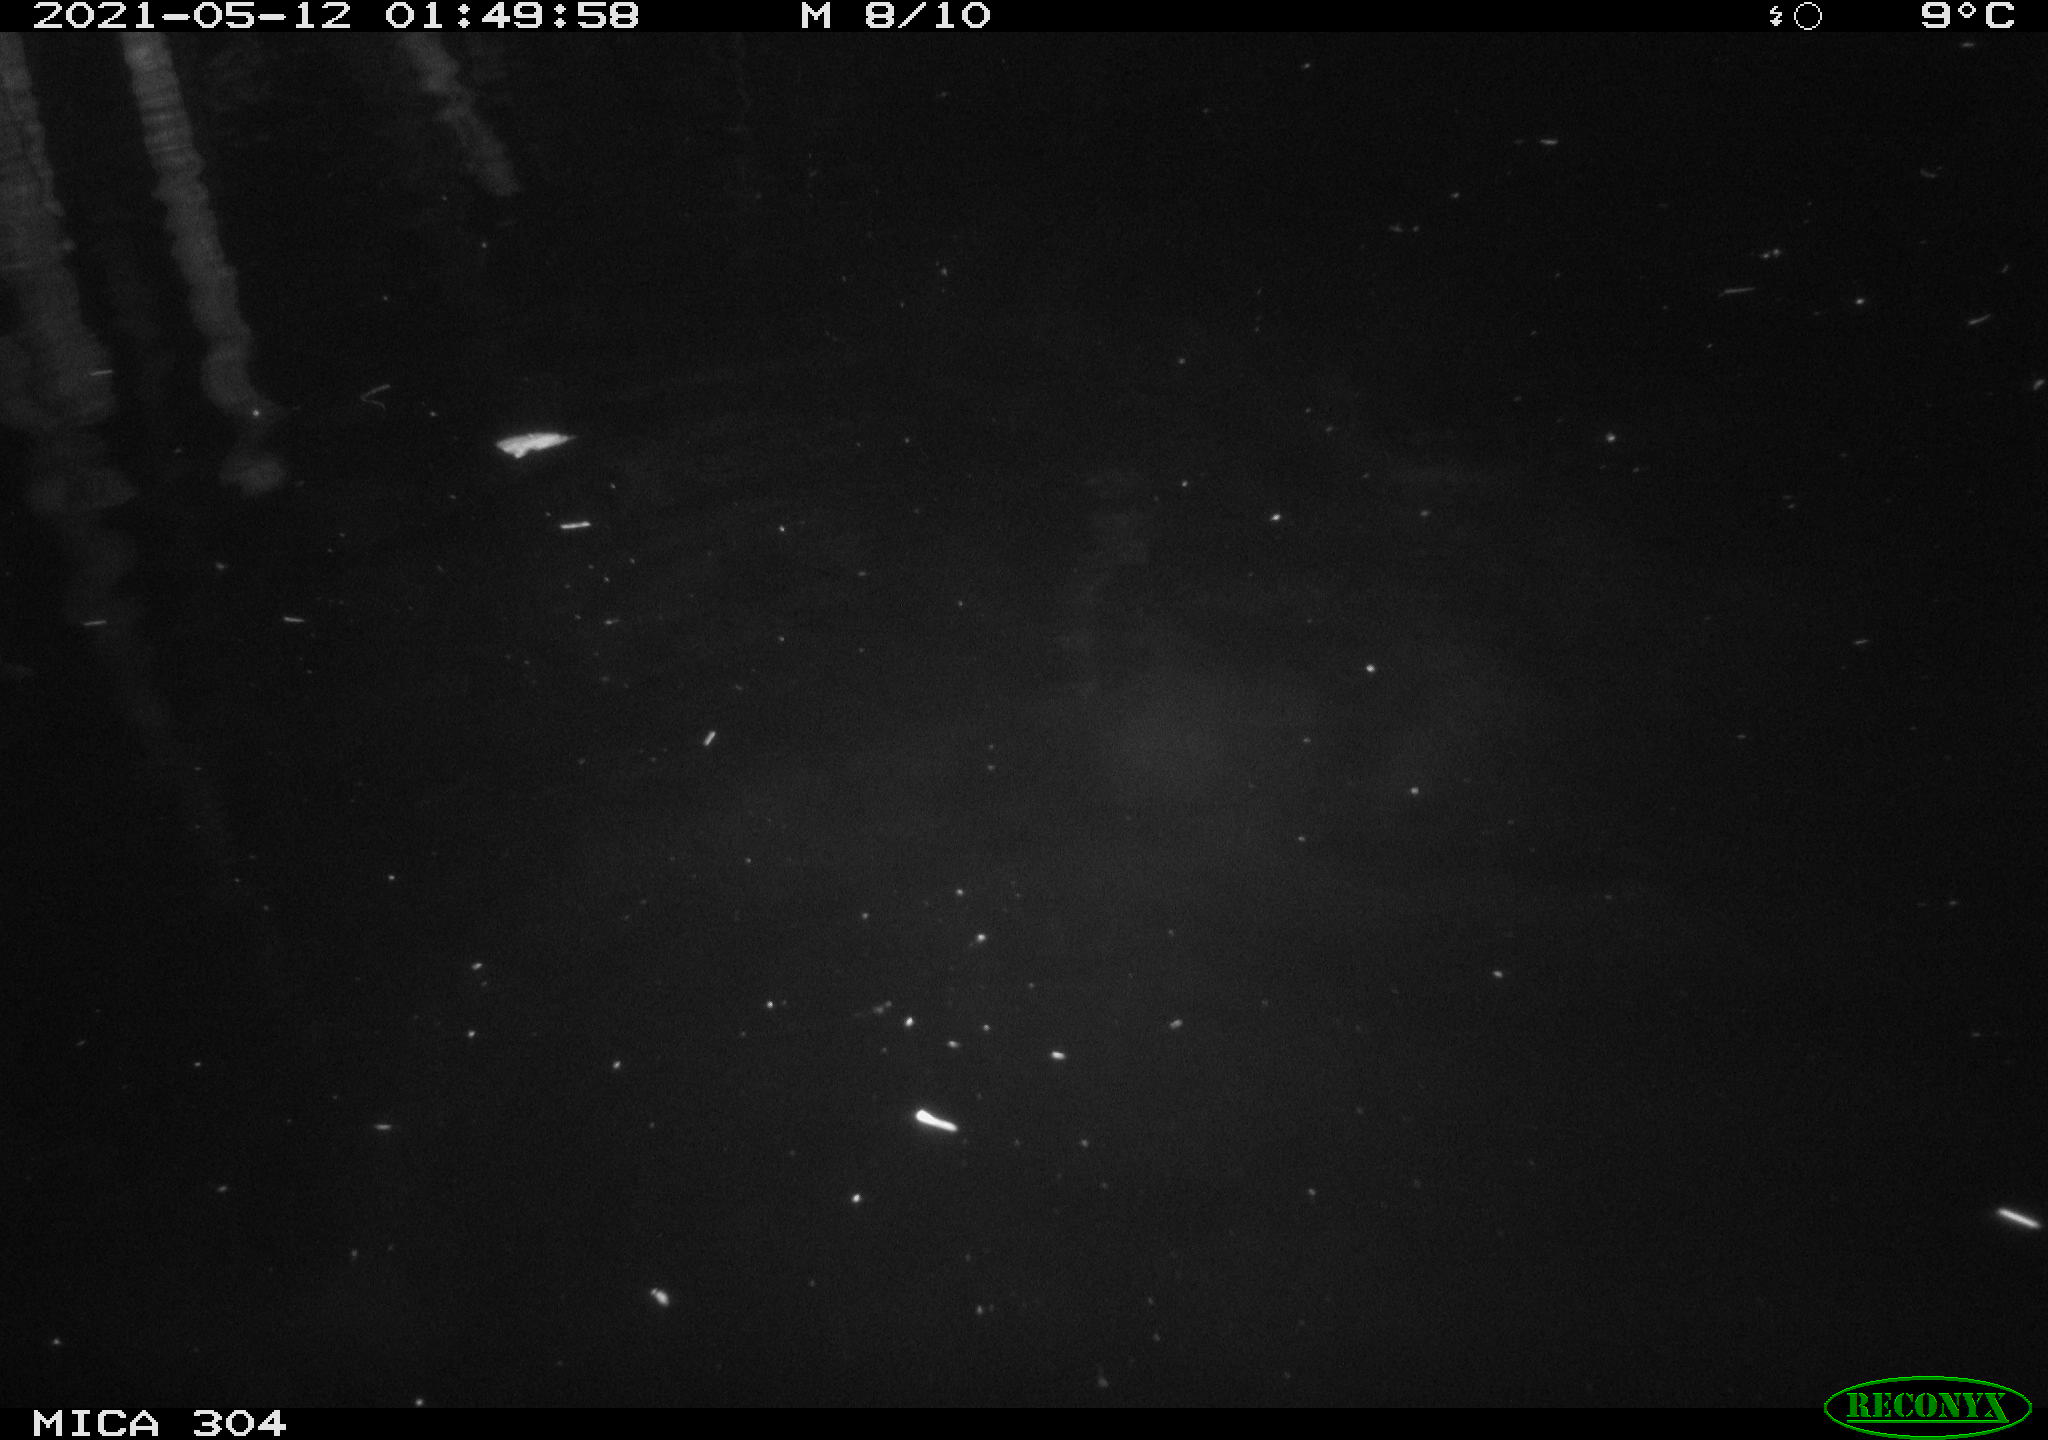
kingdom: Animalia
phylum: Chordata
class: Mammalia
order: Rodentia
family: Cricetidae
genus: Ondatra
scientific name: Ondatra zibethicus
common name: Muskrat
